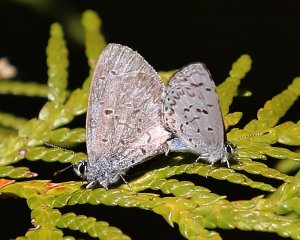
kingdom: Animalia
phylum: Arthropoda
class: Insecta
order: Lepidoptera
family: Lycaenidae
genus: Celastrina
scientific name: Celastrina lucia
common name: Northern Spring Azure
